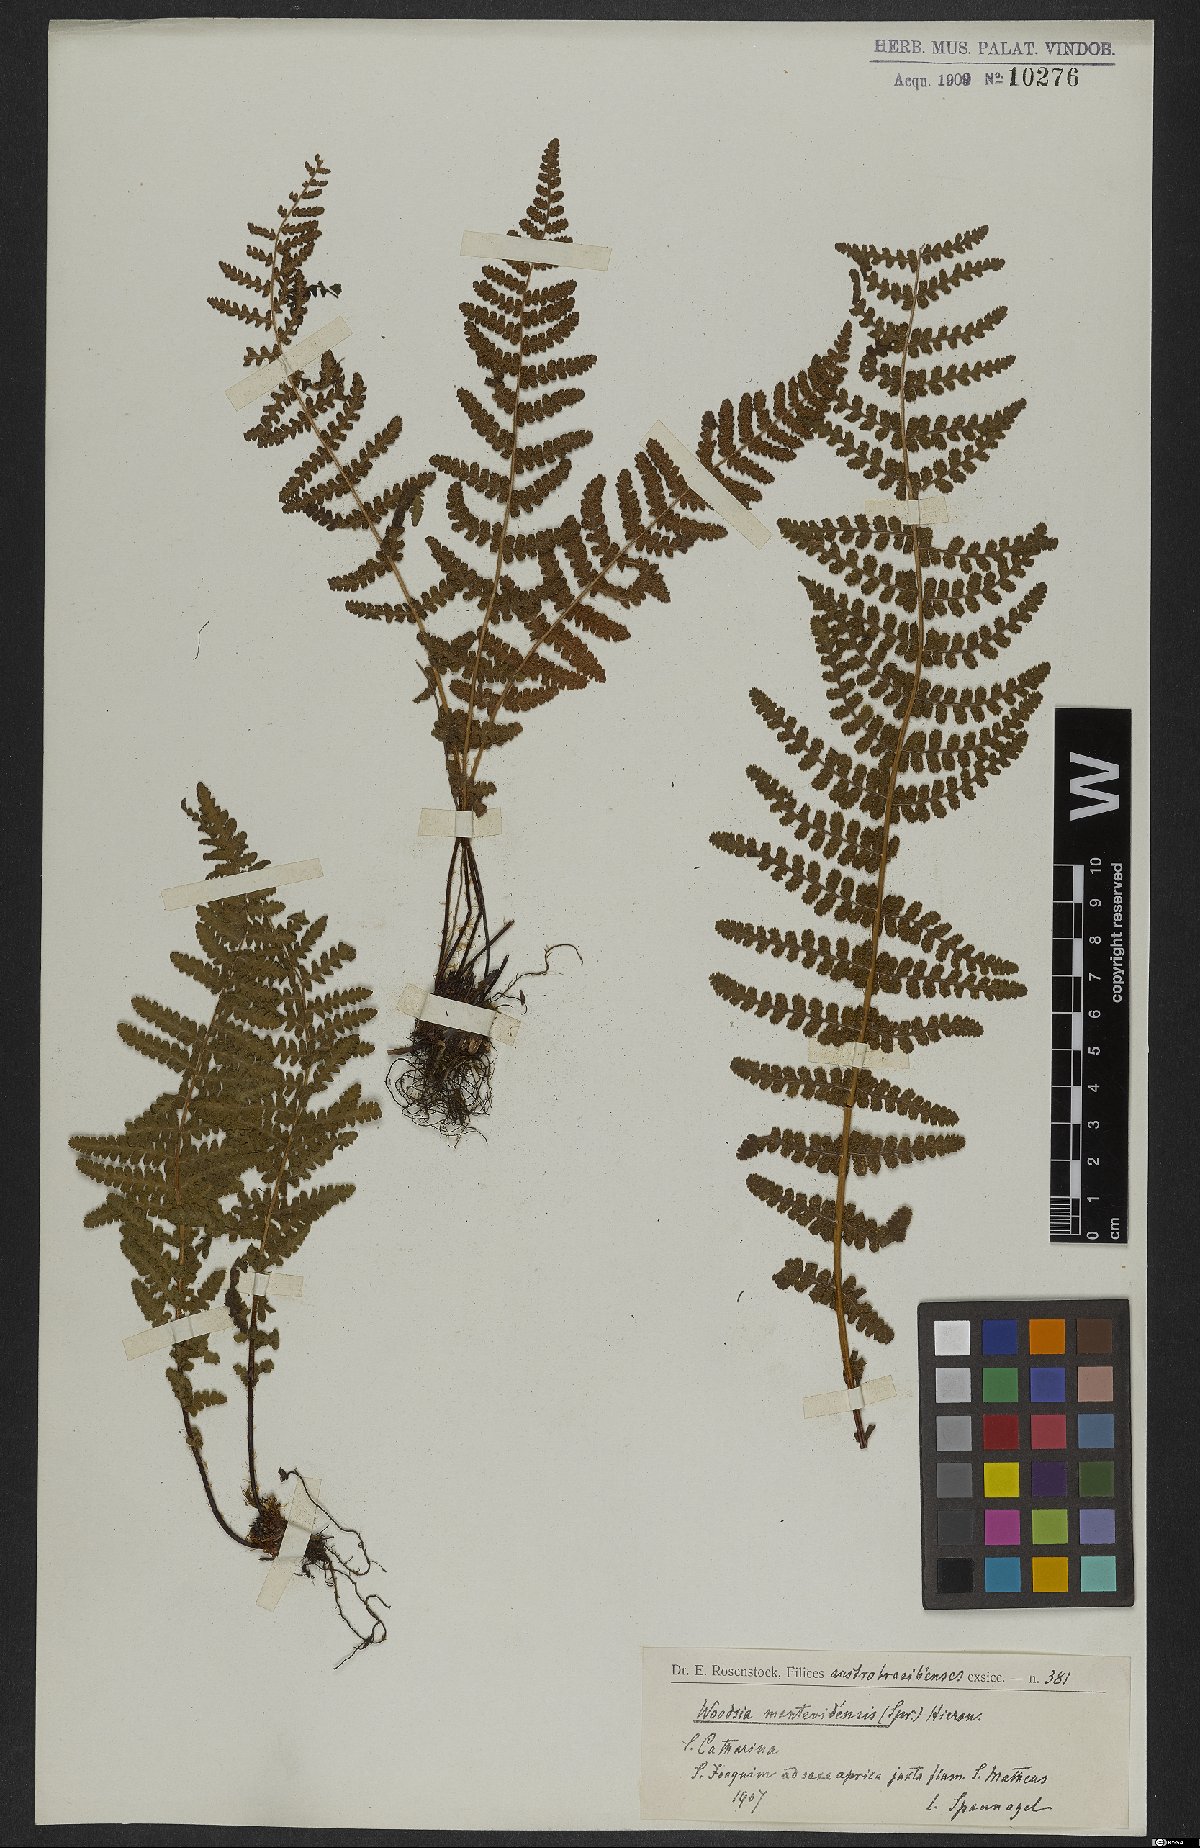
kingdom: Plantae
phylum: Tracheophyta
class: Polypodiopsida
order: Polypodiales
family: Woodsiaceae
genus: Physematium
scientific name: Physematium montevidense
